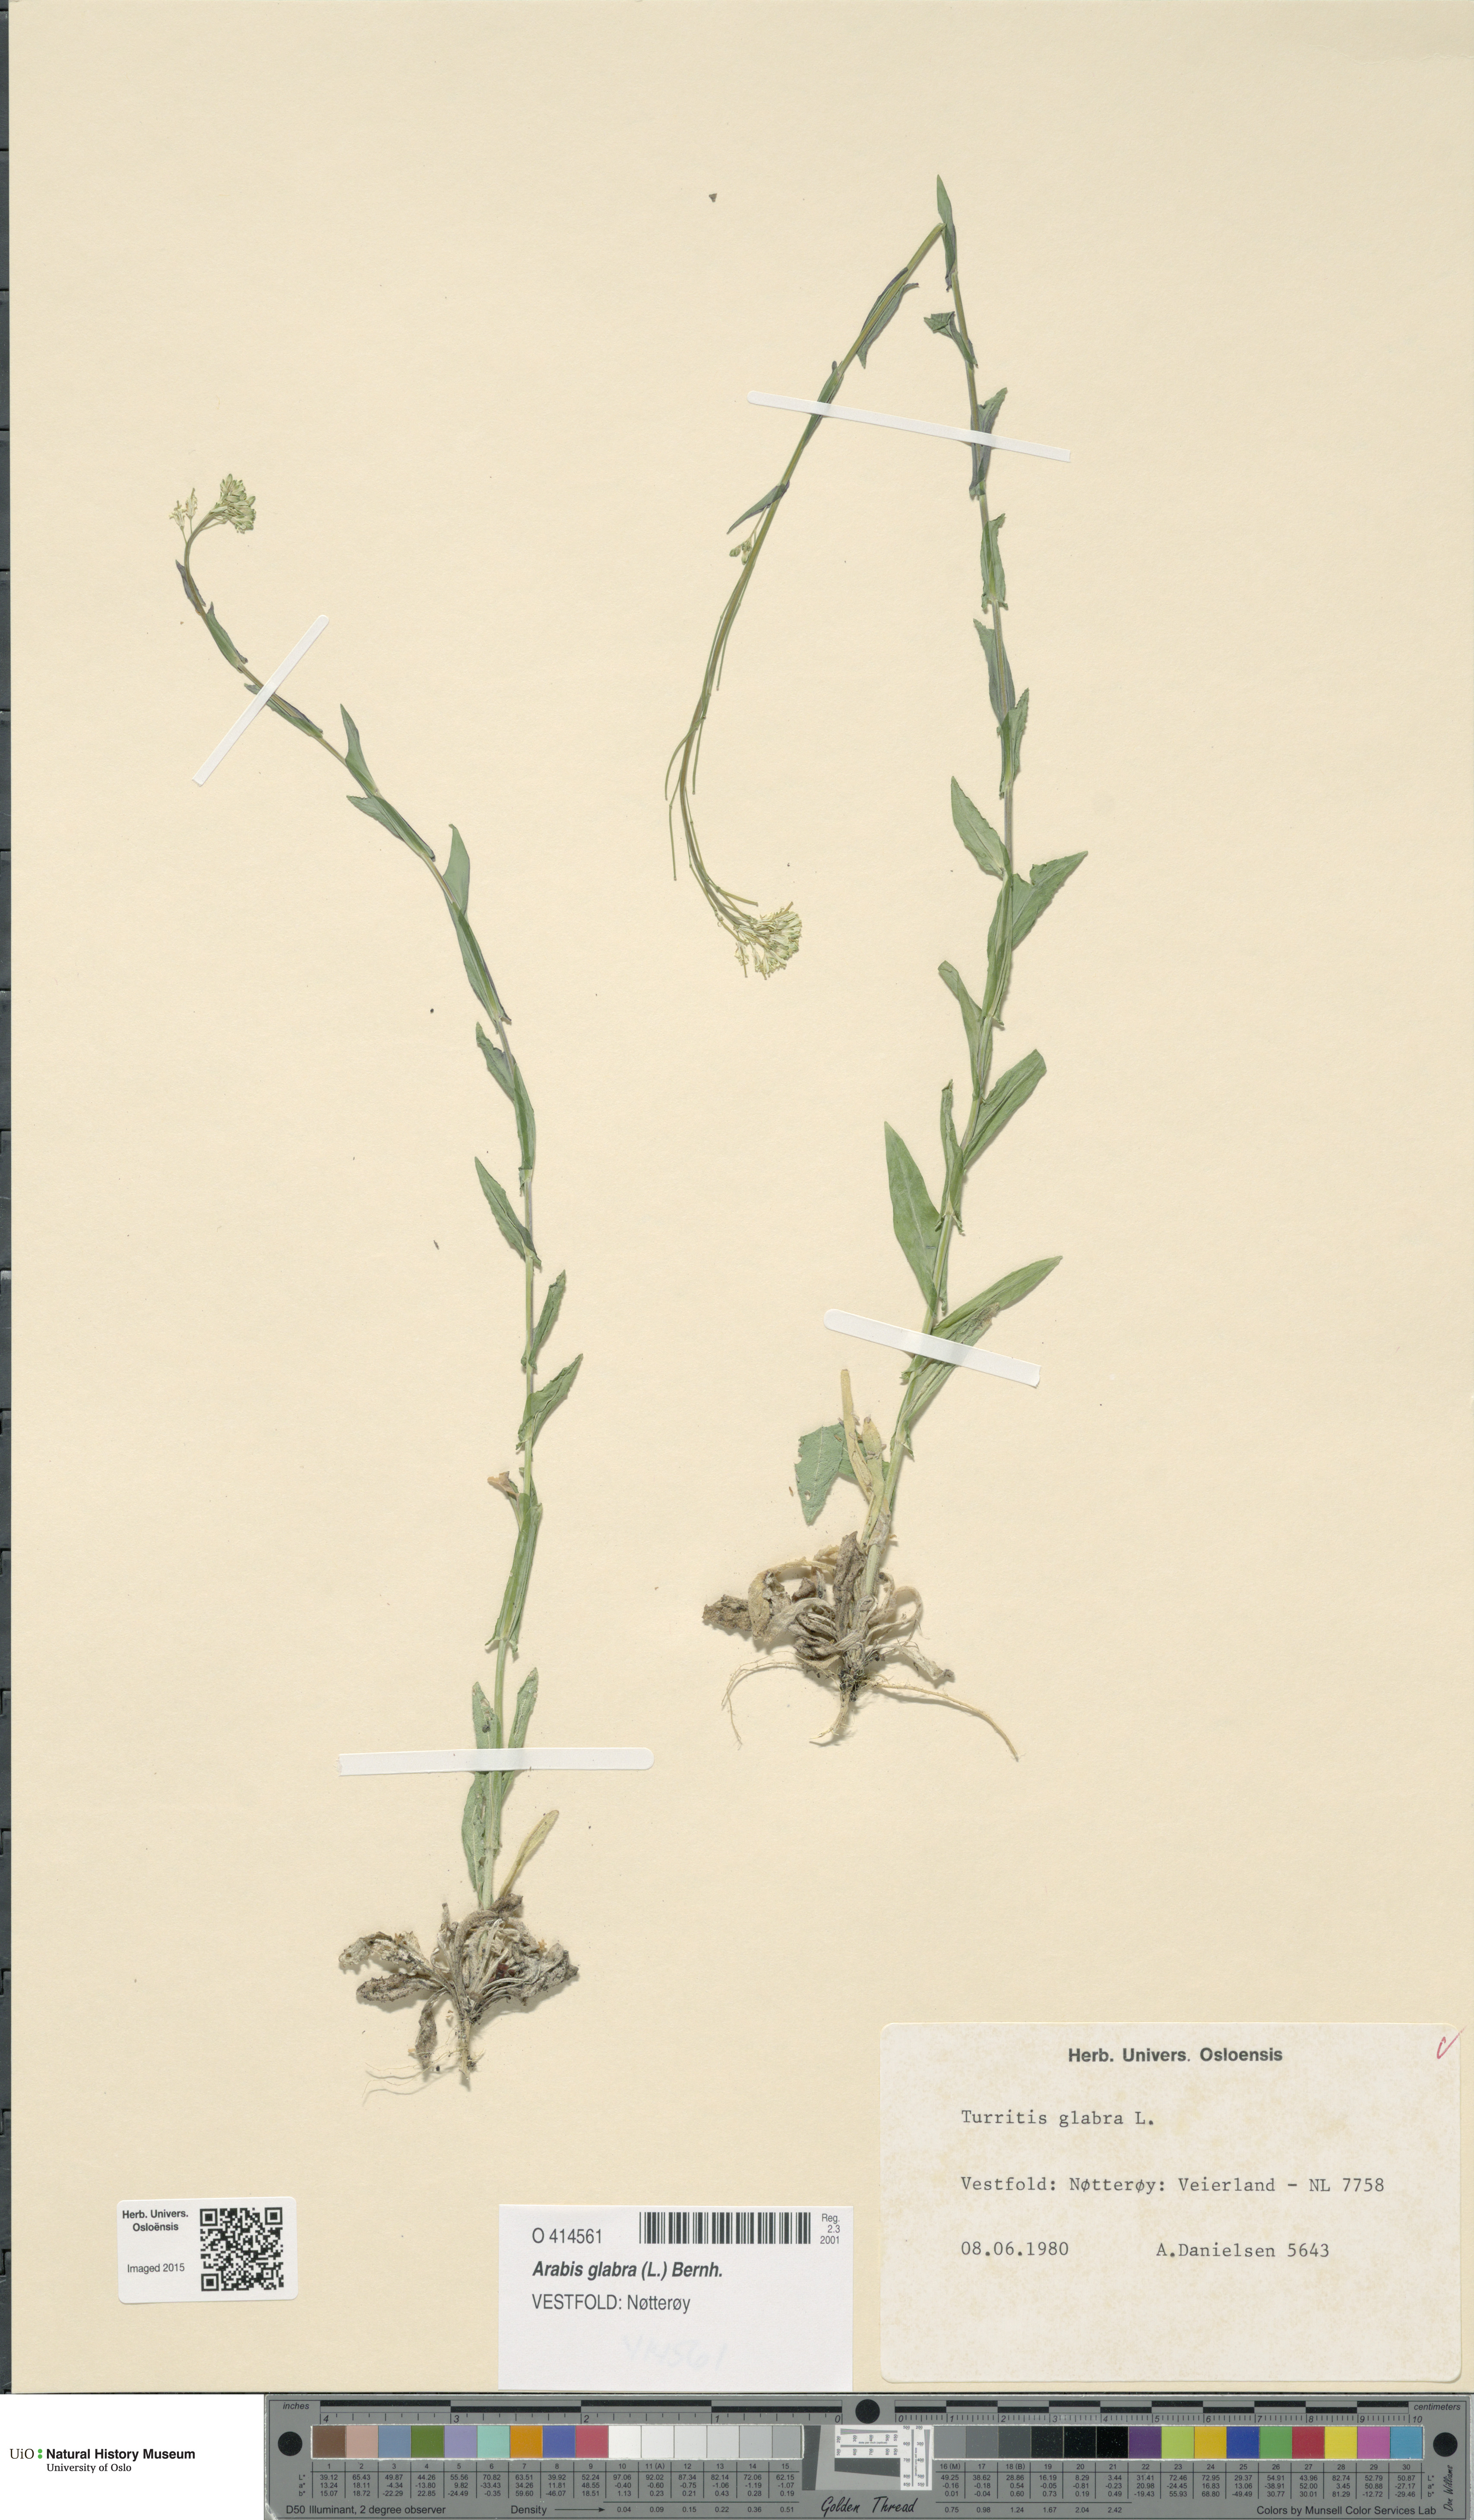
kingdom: Plantae
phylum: Tracheophyta
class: Magnoliopsida
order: Brassicales
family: Brassicaceae
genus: Turritis
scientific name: Turritis glabra
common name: Tower rockcress
